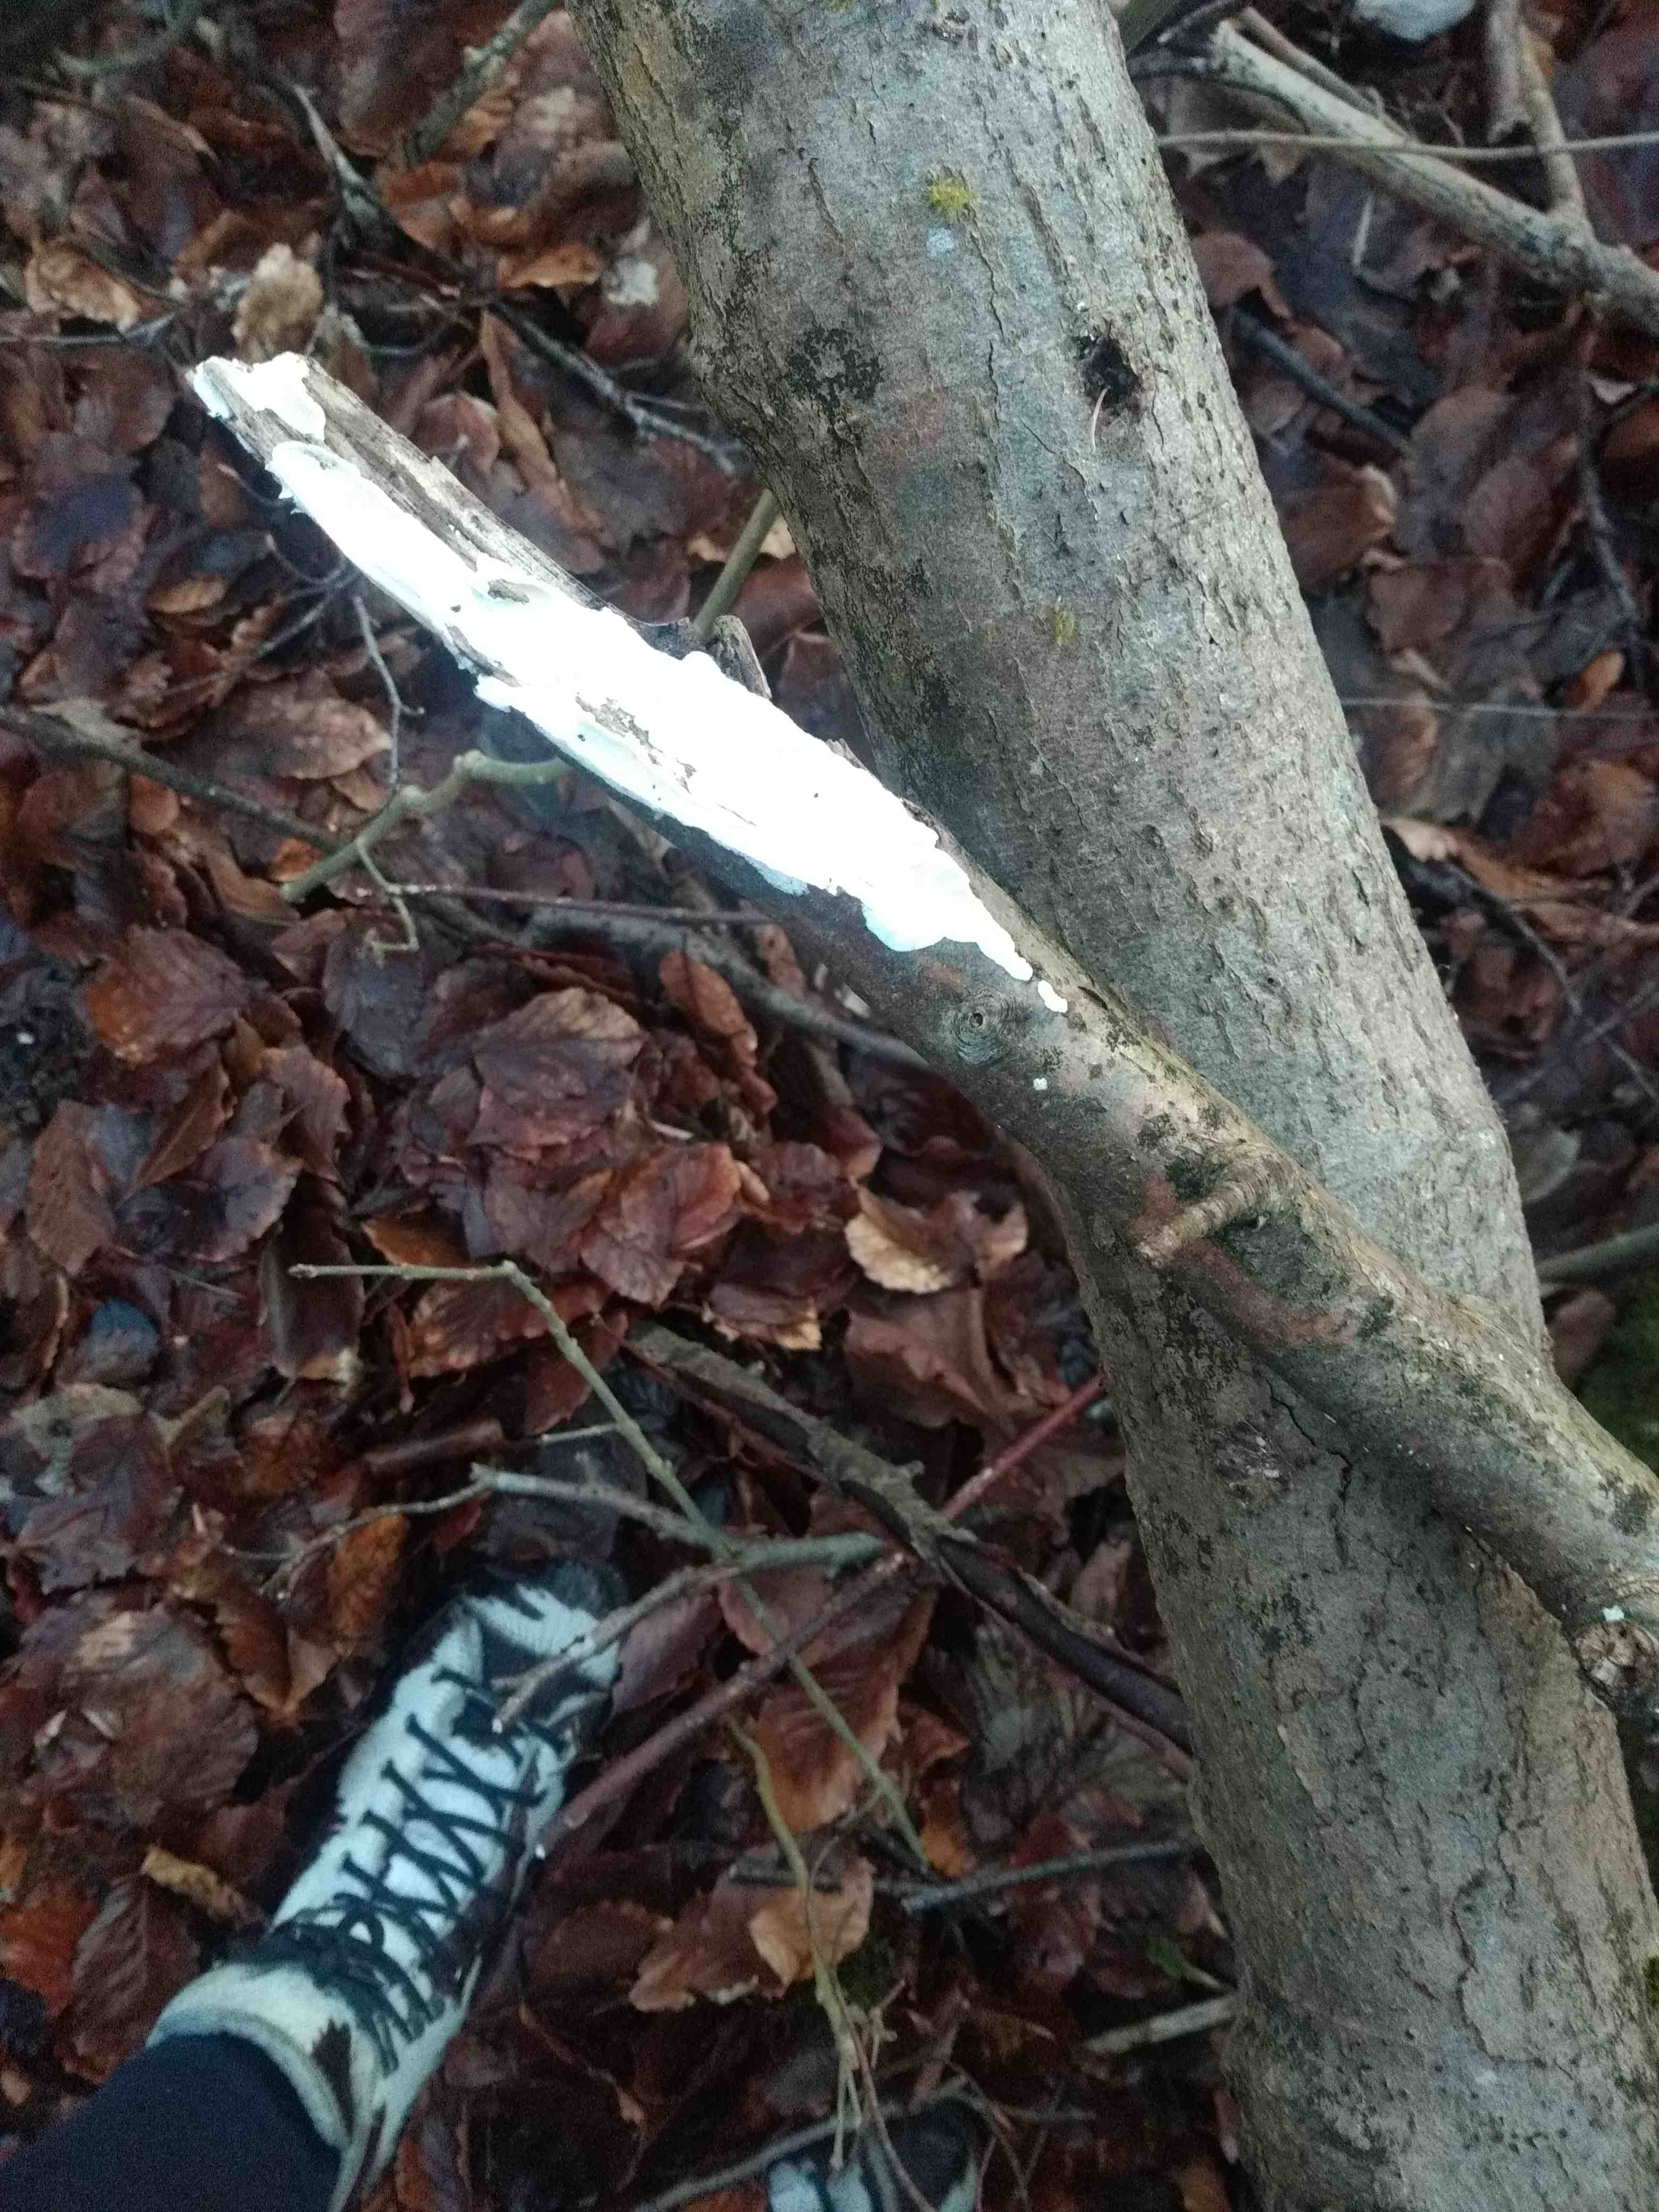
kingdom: Fungi
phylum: Basidiomycota
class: Agaricomycetes
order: Polyporales
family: Irpicaceae
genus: Byssomerulius
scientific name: Byssomerulius corium
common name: læder-åresvamp
